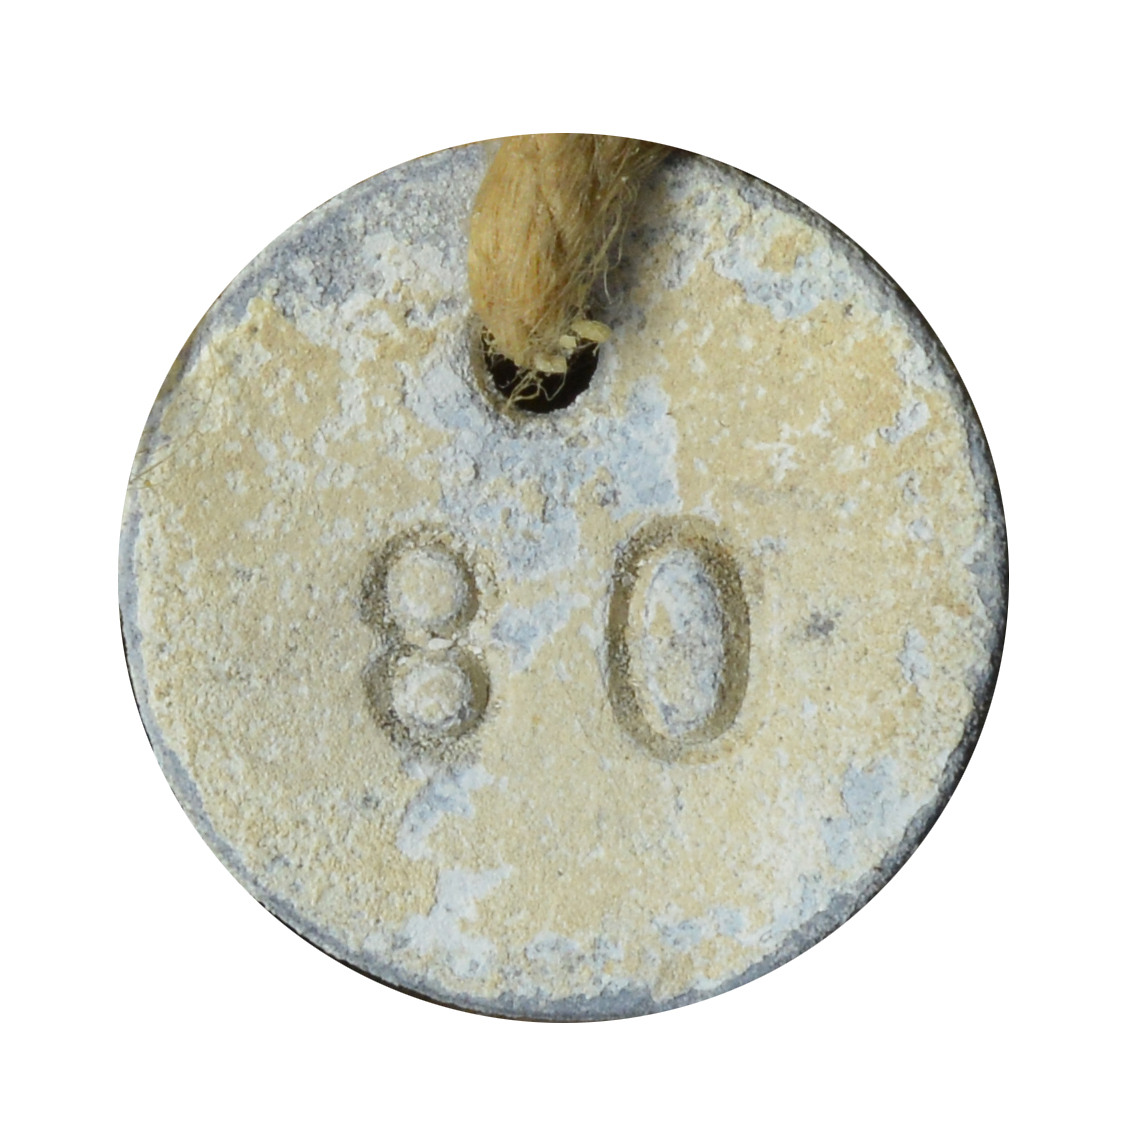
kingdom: Animalia
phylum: Chordata
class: Aves
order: Charadriiformes
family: Stercorariidae
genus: Stercorarius
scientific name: Stercorarius antarcticus
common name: Brown skua
